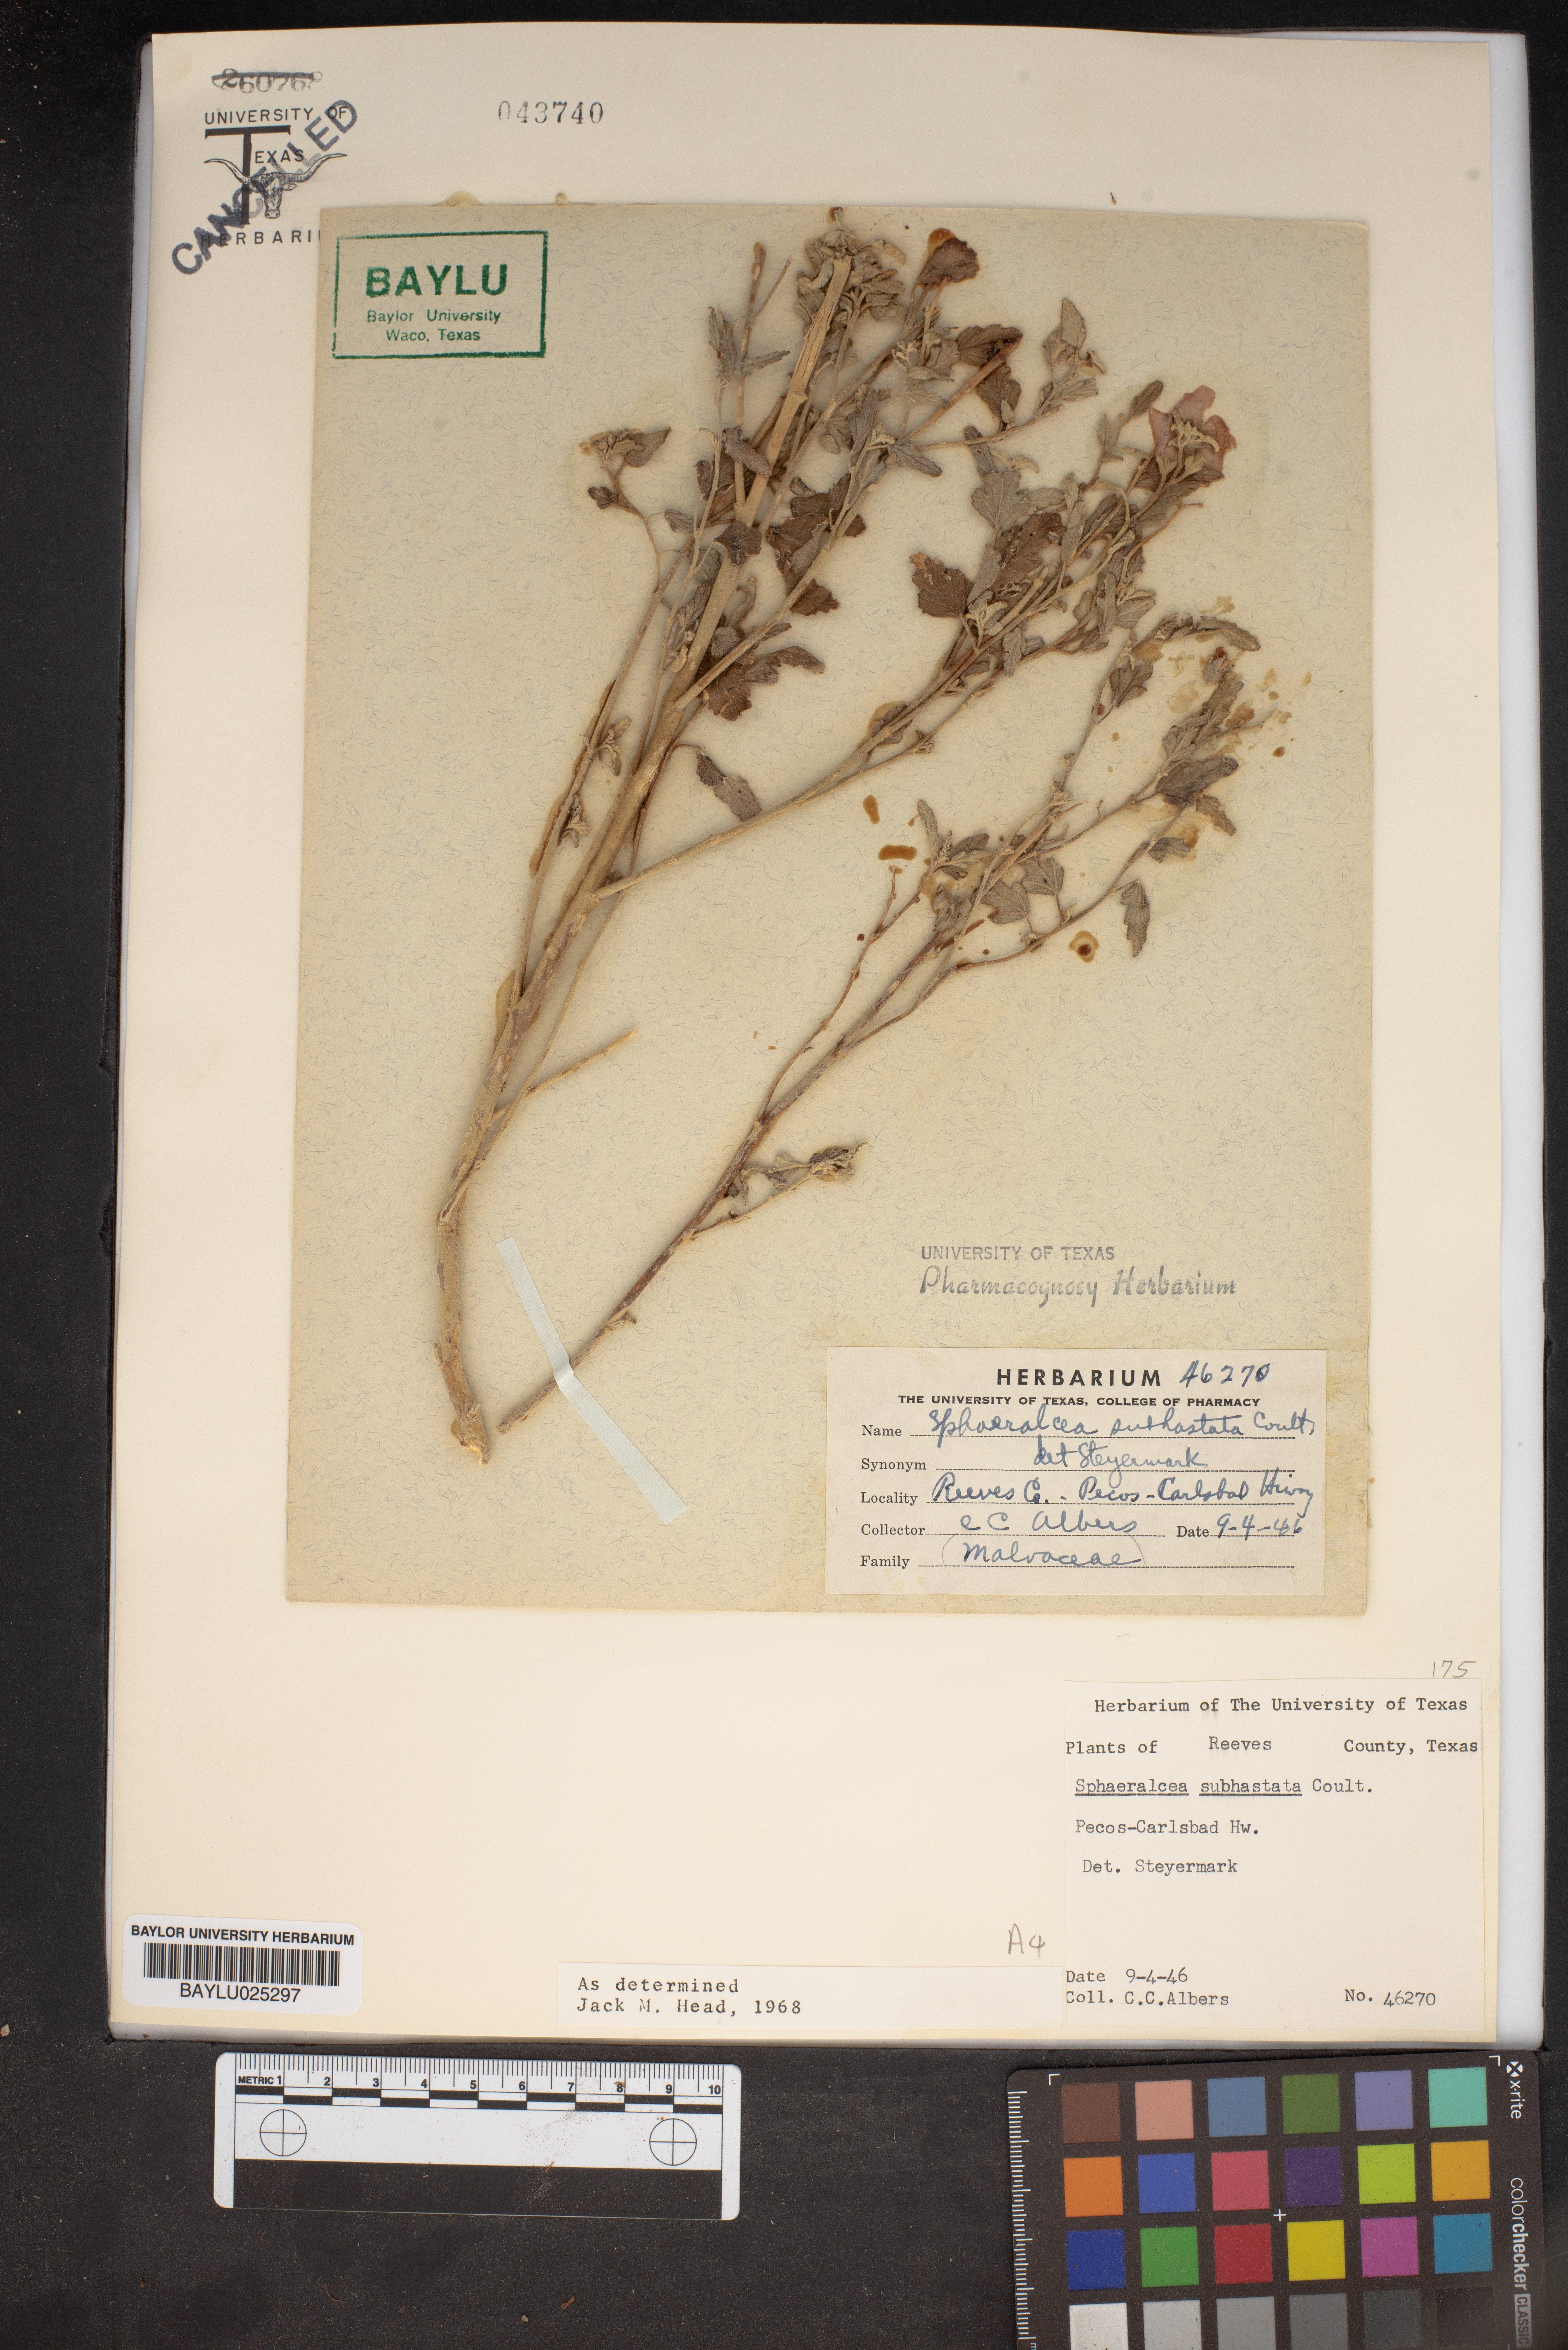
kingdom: Plantae
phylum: Tracheophyta
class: Magnoliopsida
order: Malvales
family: Malvaceae
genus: Sphaeralcea
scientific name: Sphaeralcea hastulata
